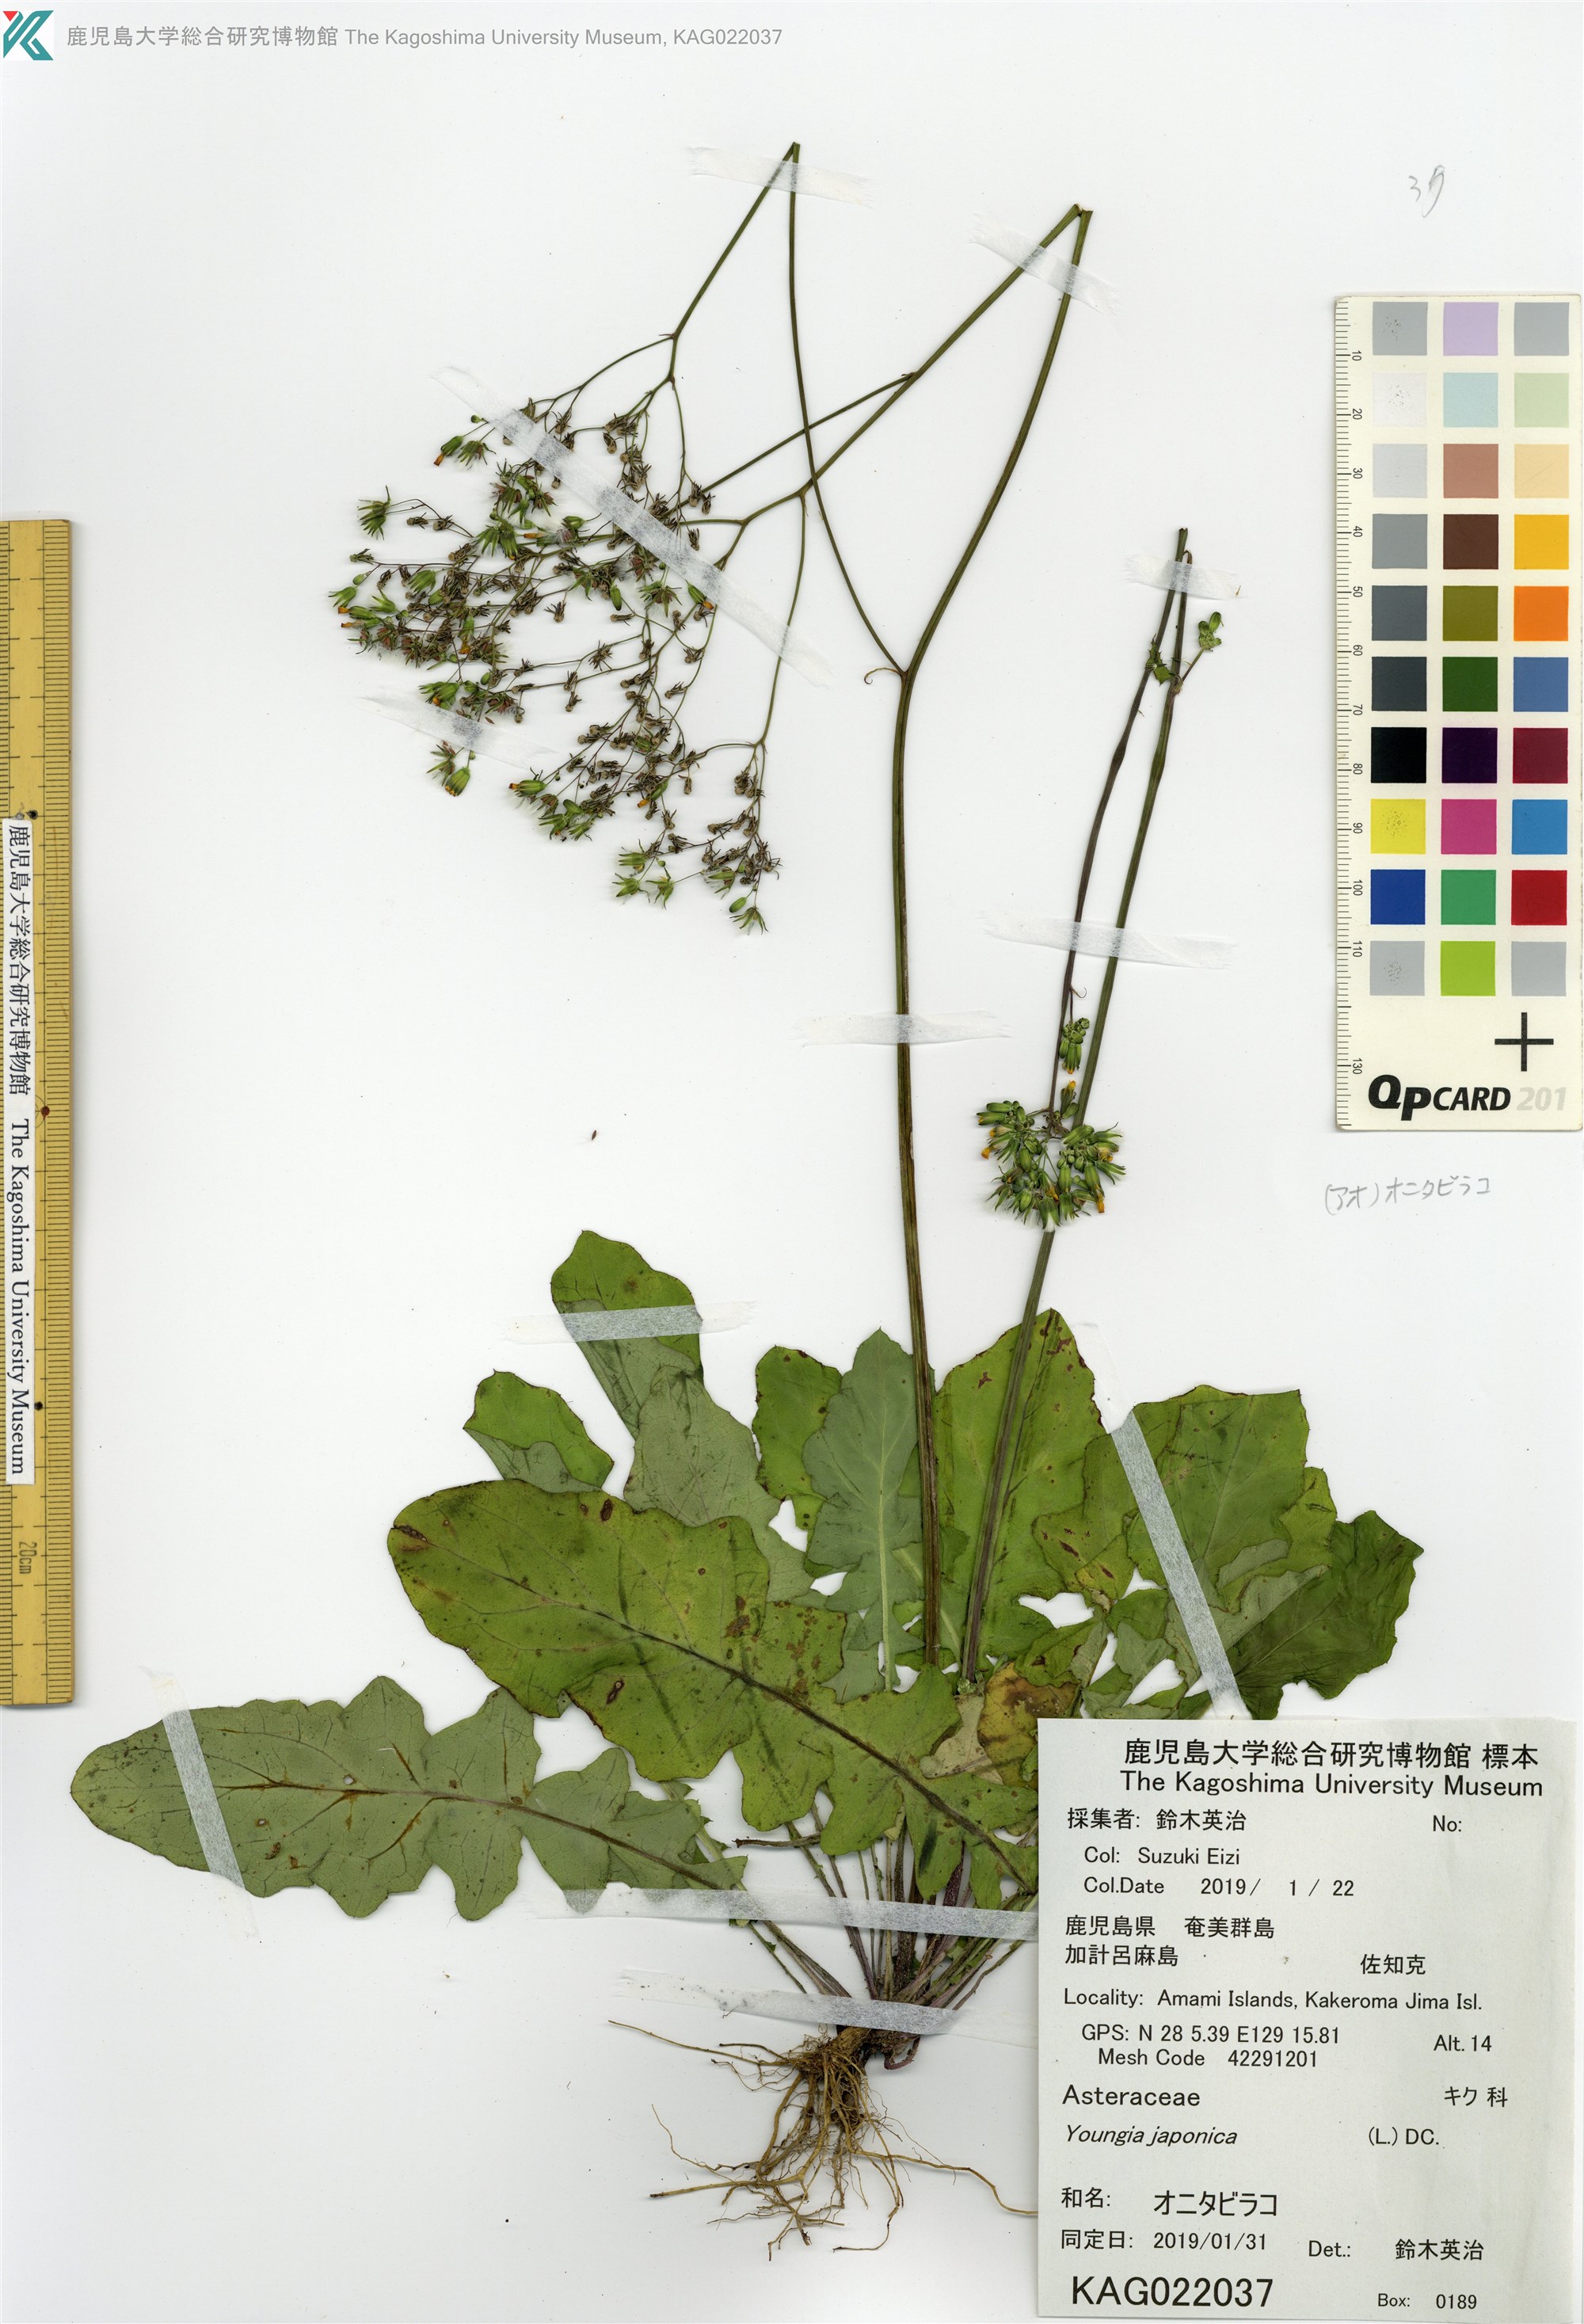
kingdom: Plantae
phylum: Tracheophyta
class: Magnoliopsida
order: Asterales
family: Asteraceae
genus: Youngia
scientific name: Youngia japonica
